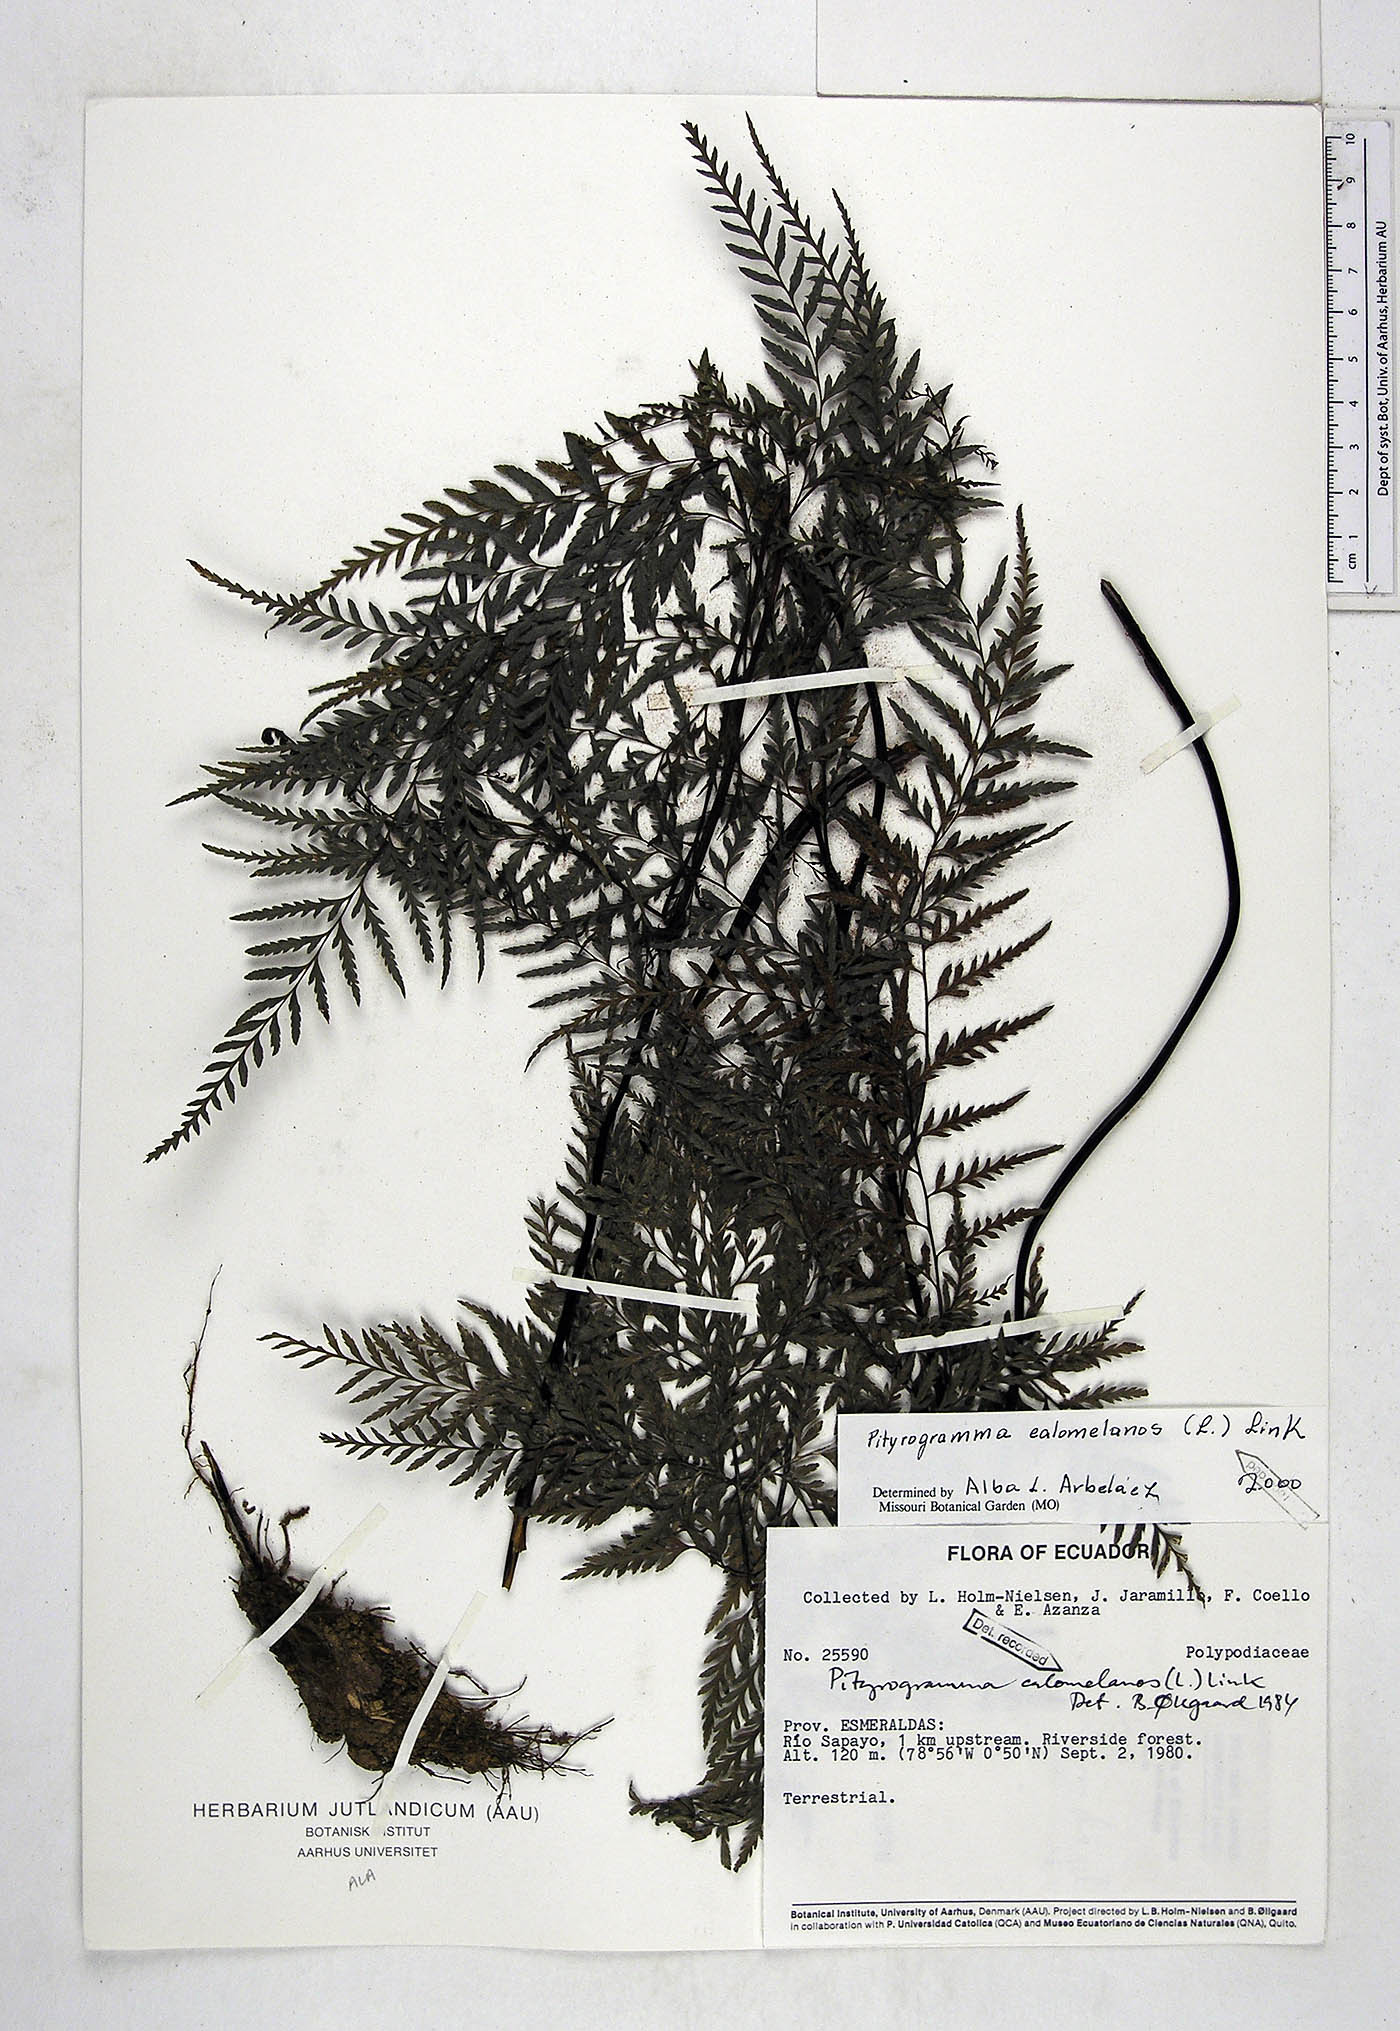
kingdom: Plantae
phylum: Tracheophyta
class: Polypodiopsida
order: Polypodiales
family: Pteridaceae
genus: Pityrogramma
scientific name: Pityrogramma calomelanos
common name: Dixie silverback fern
